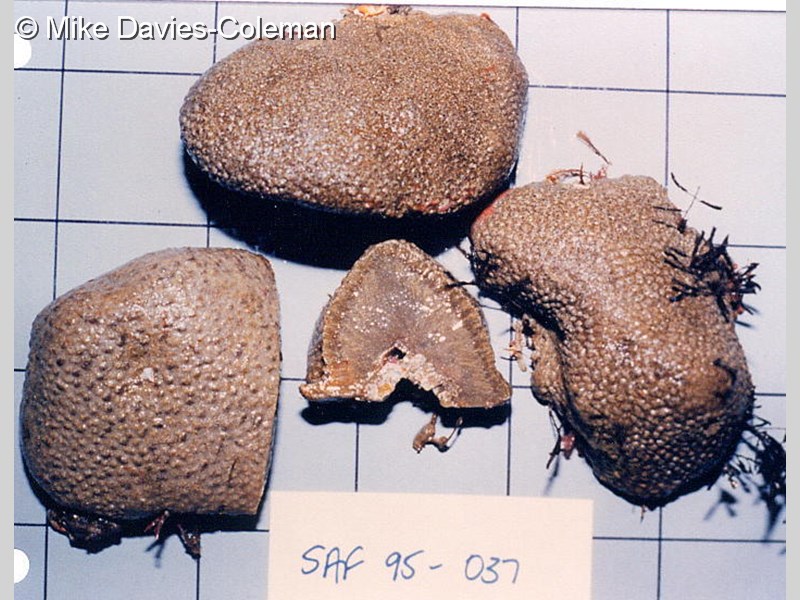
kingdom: Animalia
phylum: Chordata
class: Ascidiacea
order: Aplousobranchia
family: Polyclinidae
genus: Polyclinum
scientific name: Polyclinum isipingense
